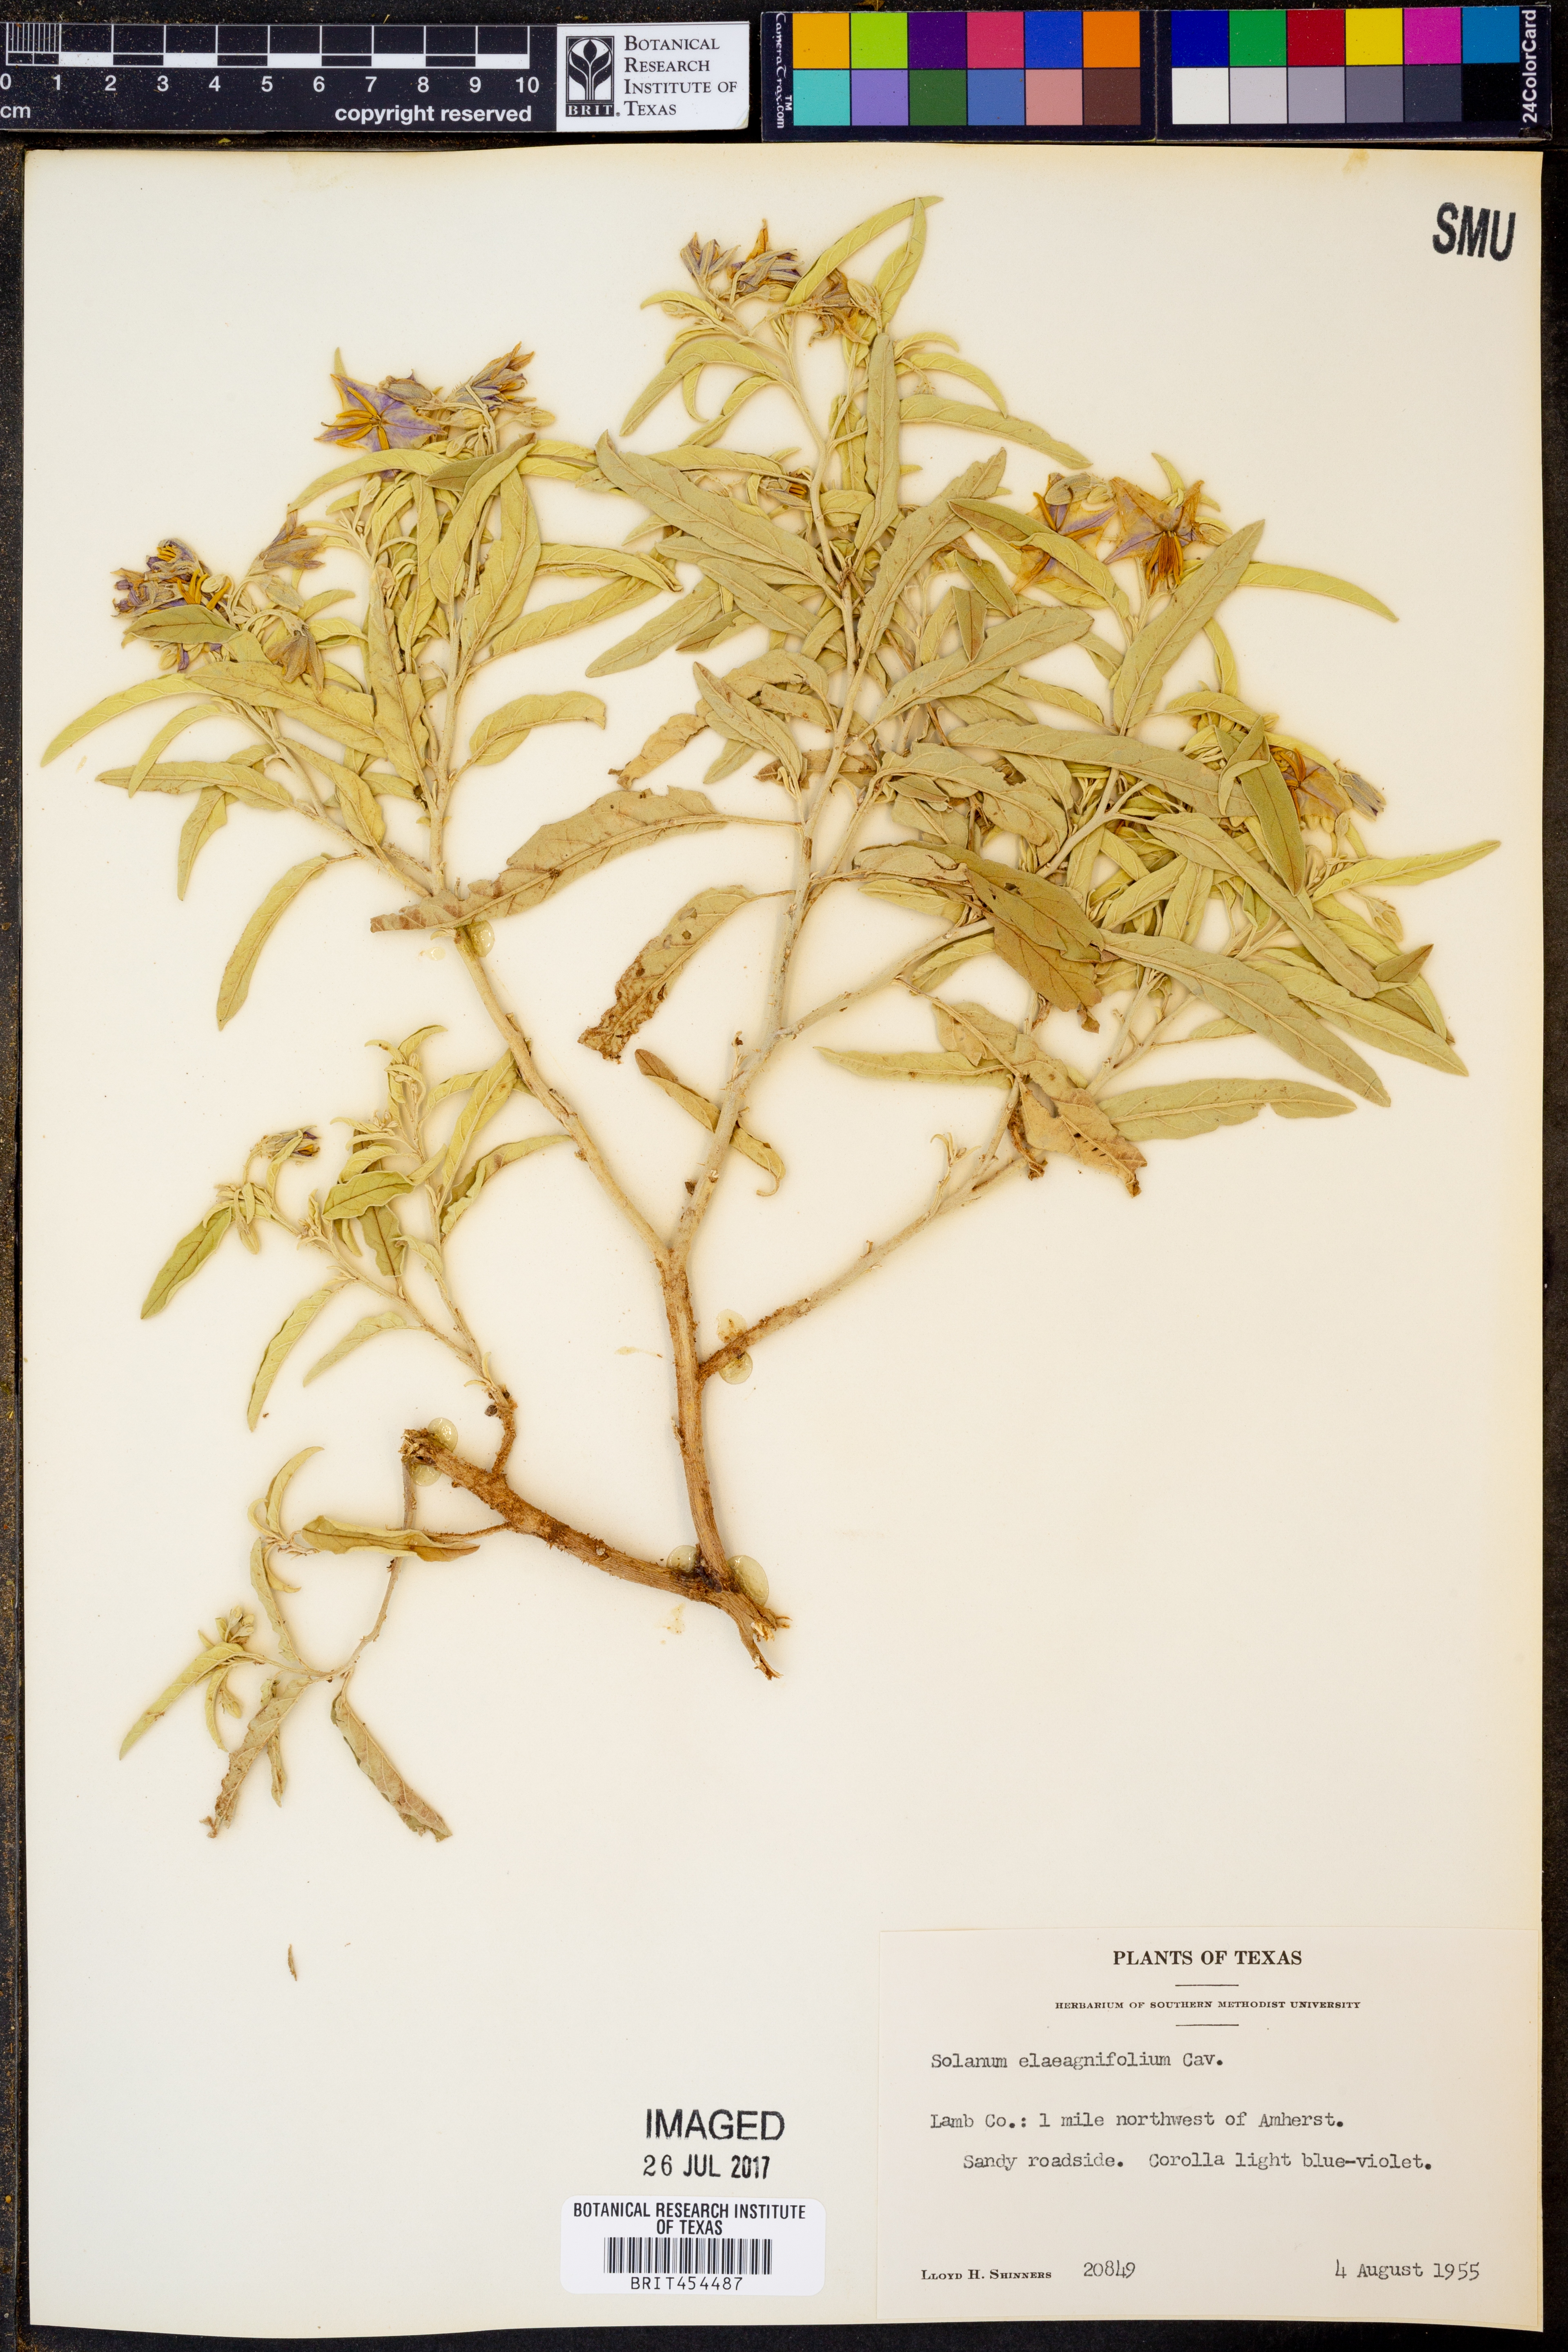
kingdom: Plantae
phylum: Tracheophyta
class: Magnoliopsida
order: Solanales
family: Solanaceae
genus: Solanum
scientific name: Solanum elaeagnifolium
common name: Silverleaf nightshade
